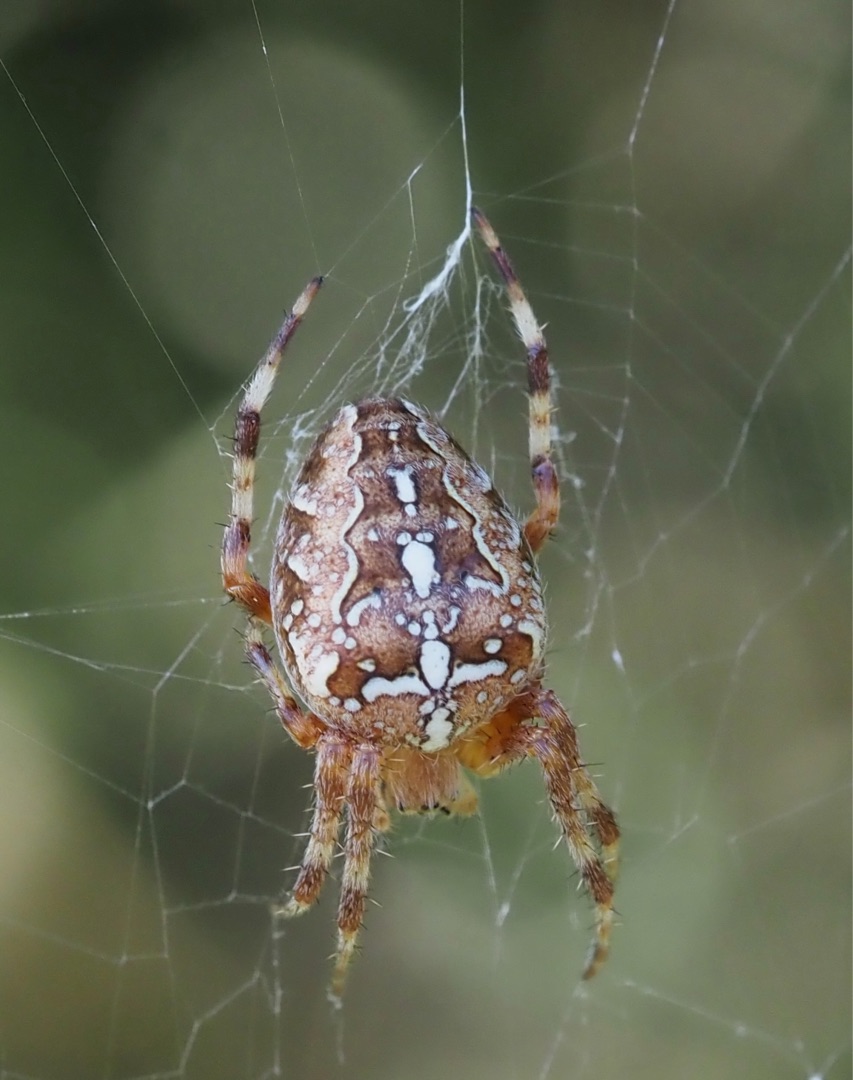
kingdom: Animalia
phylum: Arthropoda
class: Arachnida
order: Araneae
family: Araneidae
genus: Araneus
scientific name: Araneus diadematus
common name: Korsedderkop
